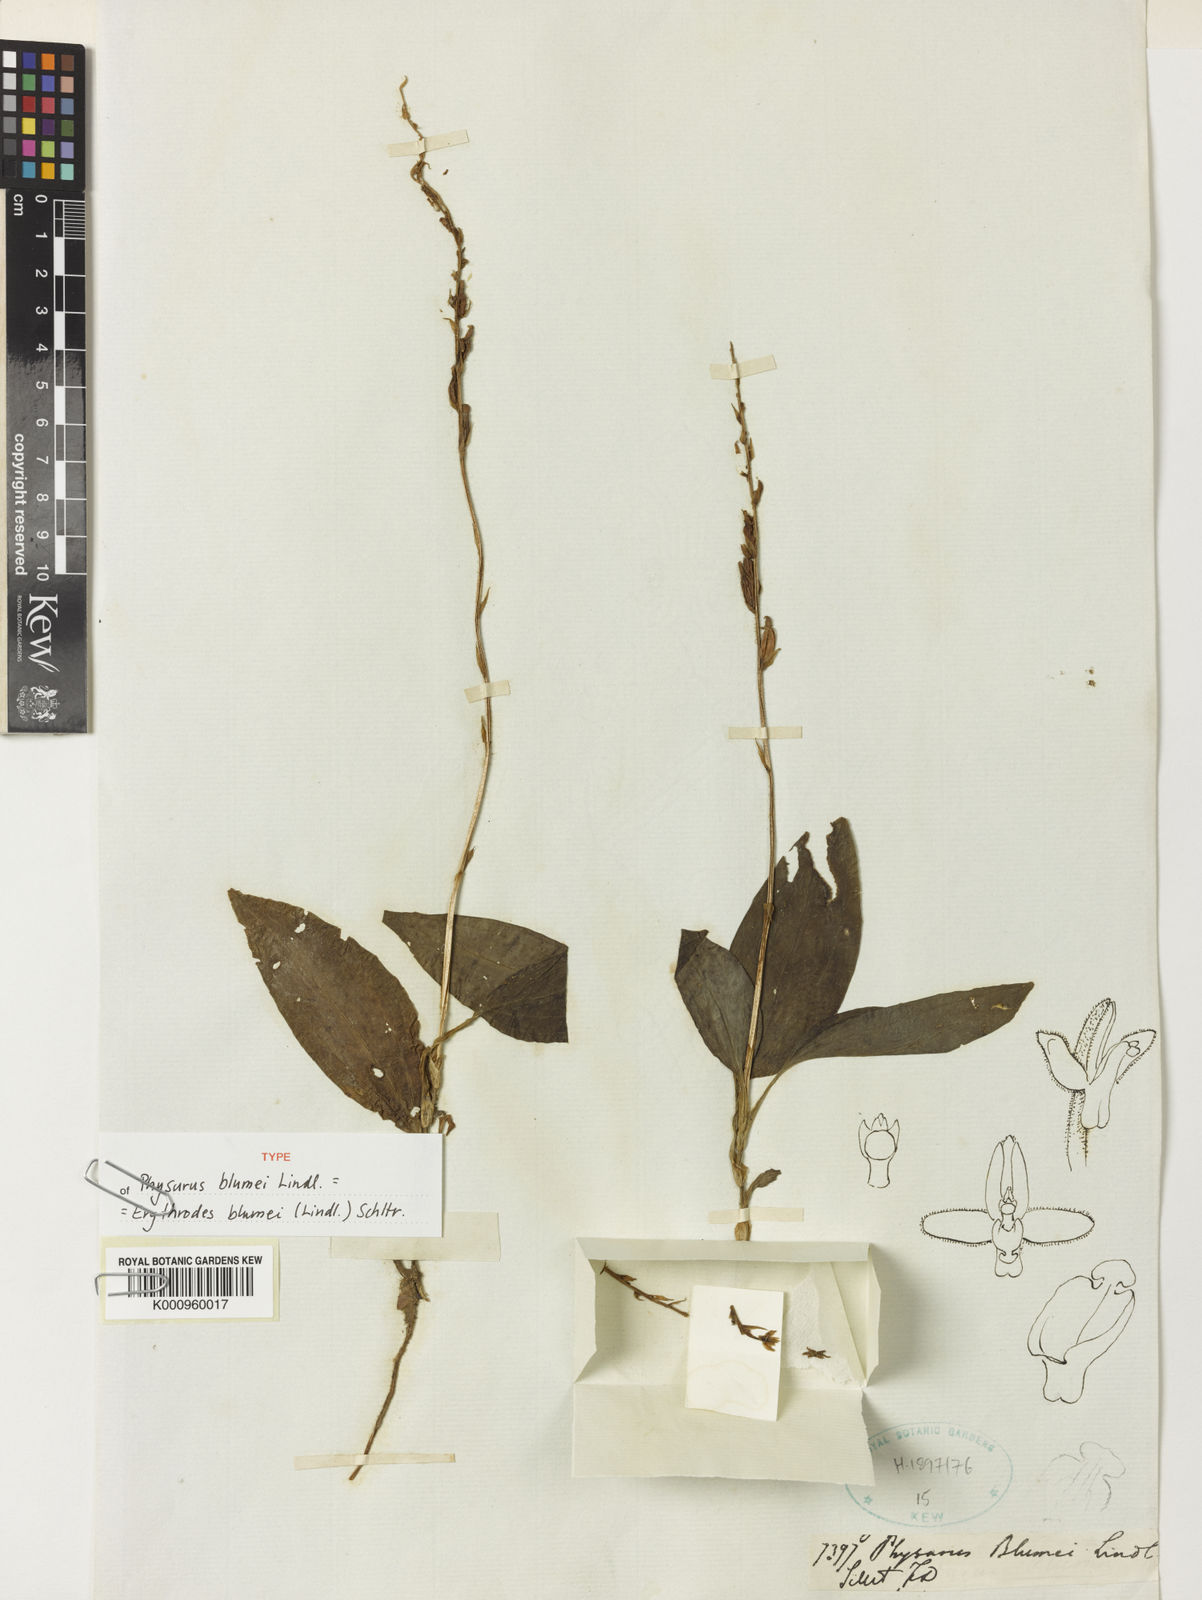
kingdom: Plantae
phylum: Tracheophyta
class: Liliopsida
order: Asparagales
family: Orchidaceae
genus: Erythrodes
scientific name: Erythrodes blumei
